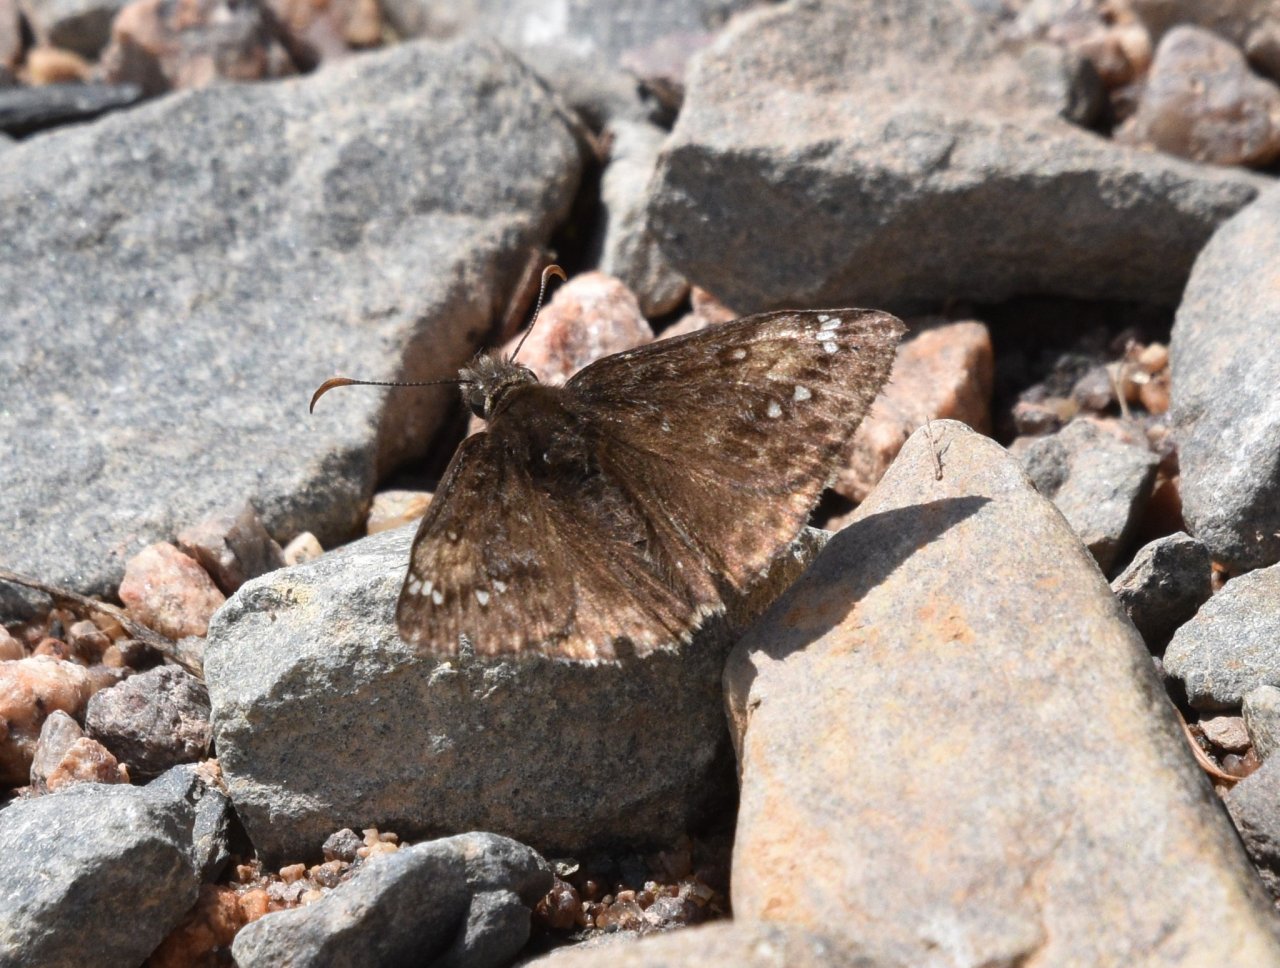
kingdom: Animalia
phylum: Arthropoda
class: Insecta
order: Lepidoptera
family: Hesperiidae
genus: Gesta
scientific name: Gesta
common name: Juvenal's Duskywing
